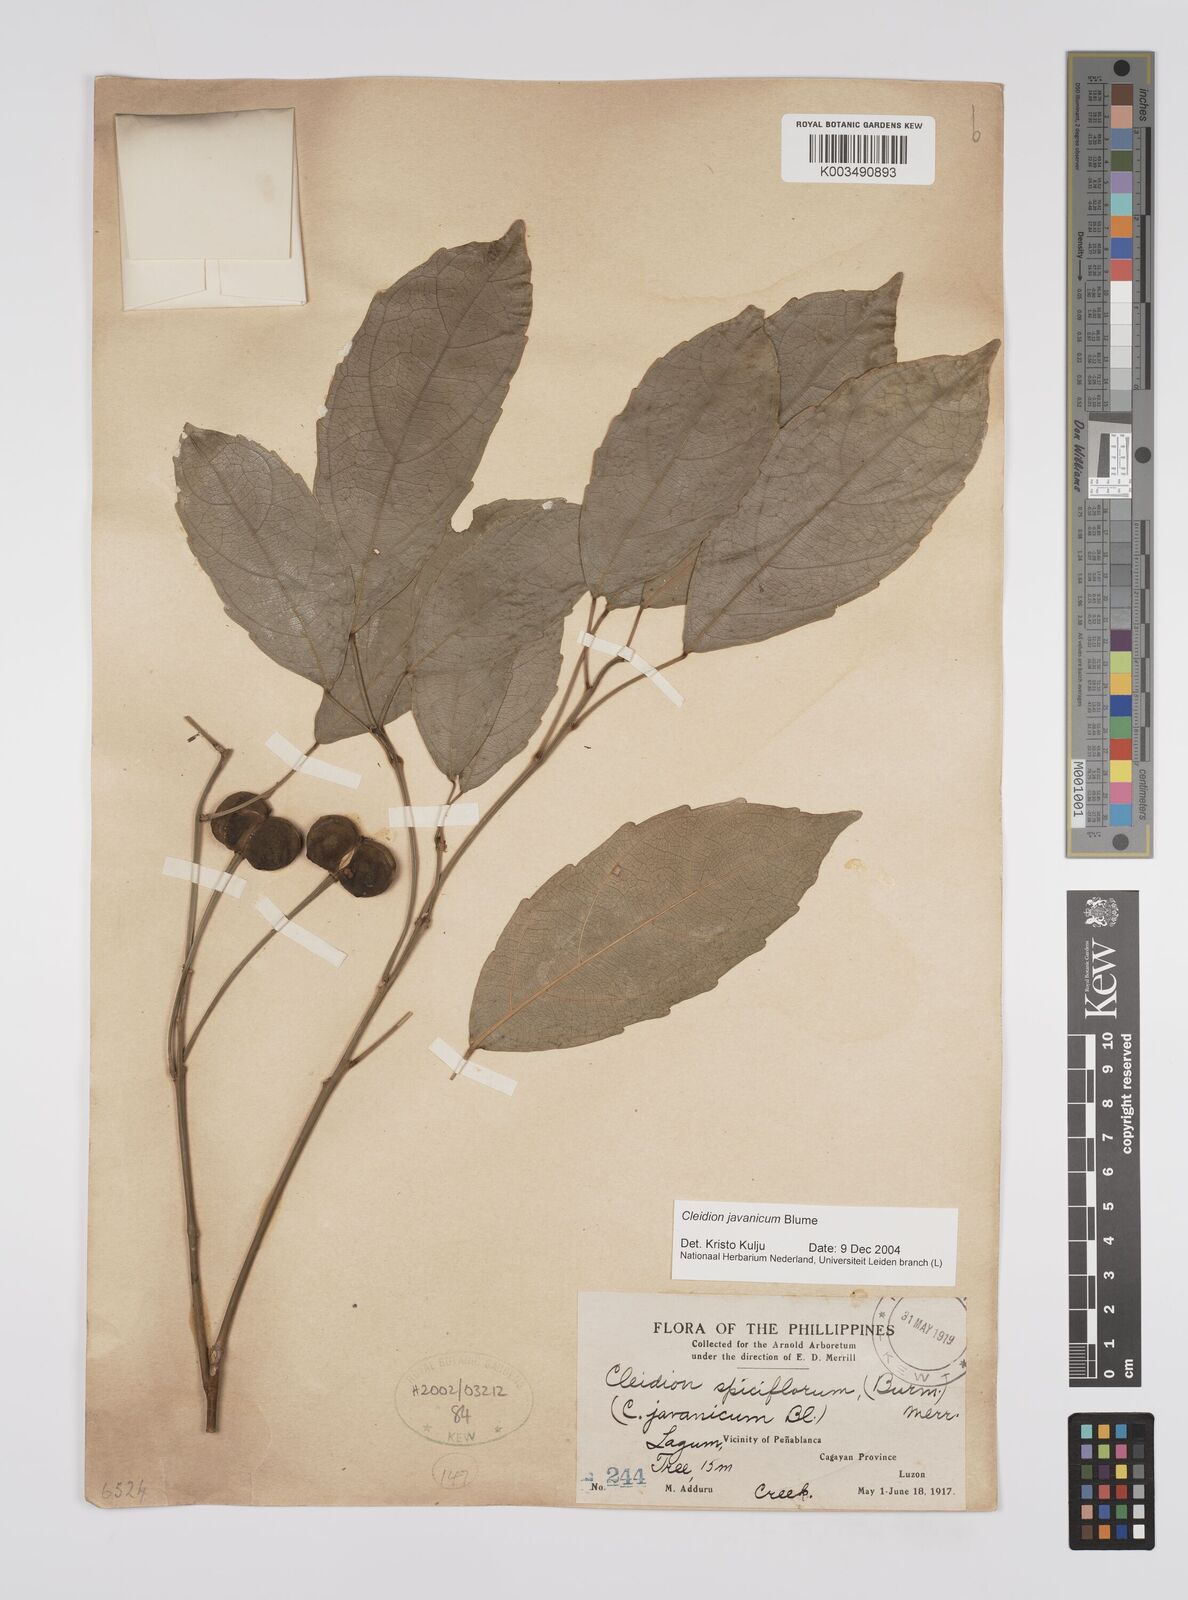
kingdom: Plantae
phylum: Tracheophyta
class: Magnoliopsida
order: Malpighiales
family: Euphorbiaceae
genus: Cleidion
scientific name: Cleidion javanicum
